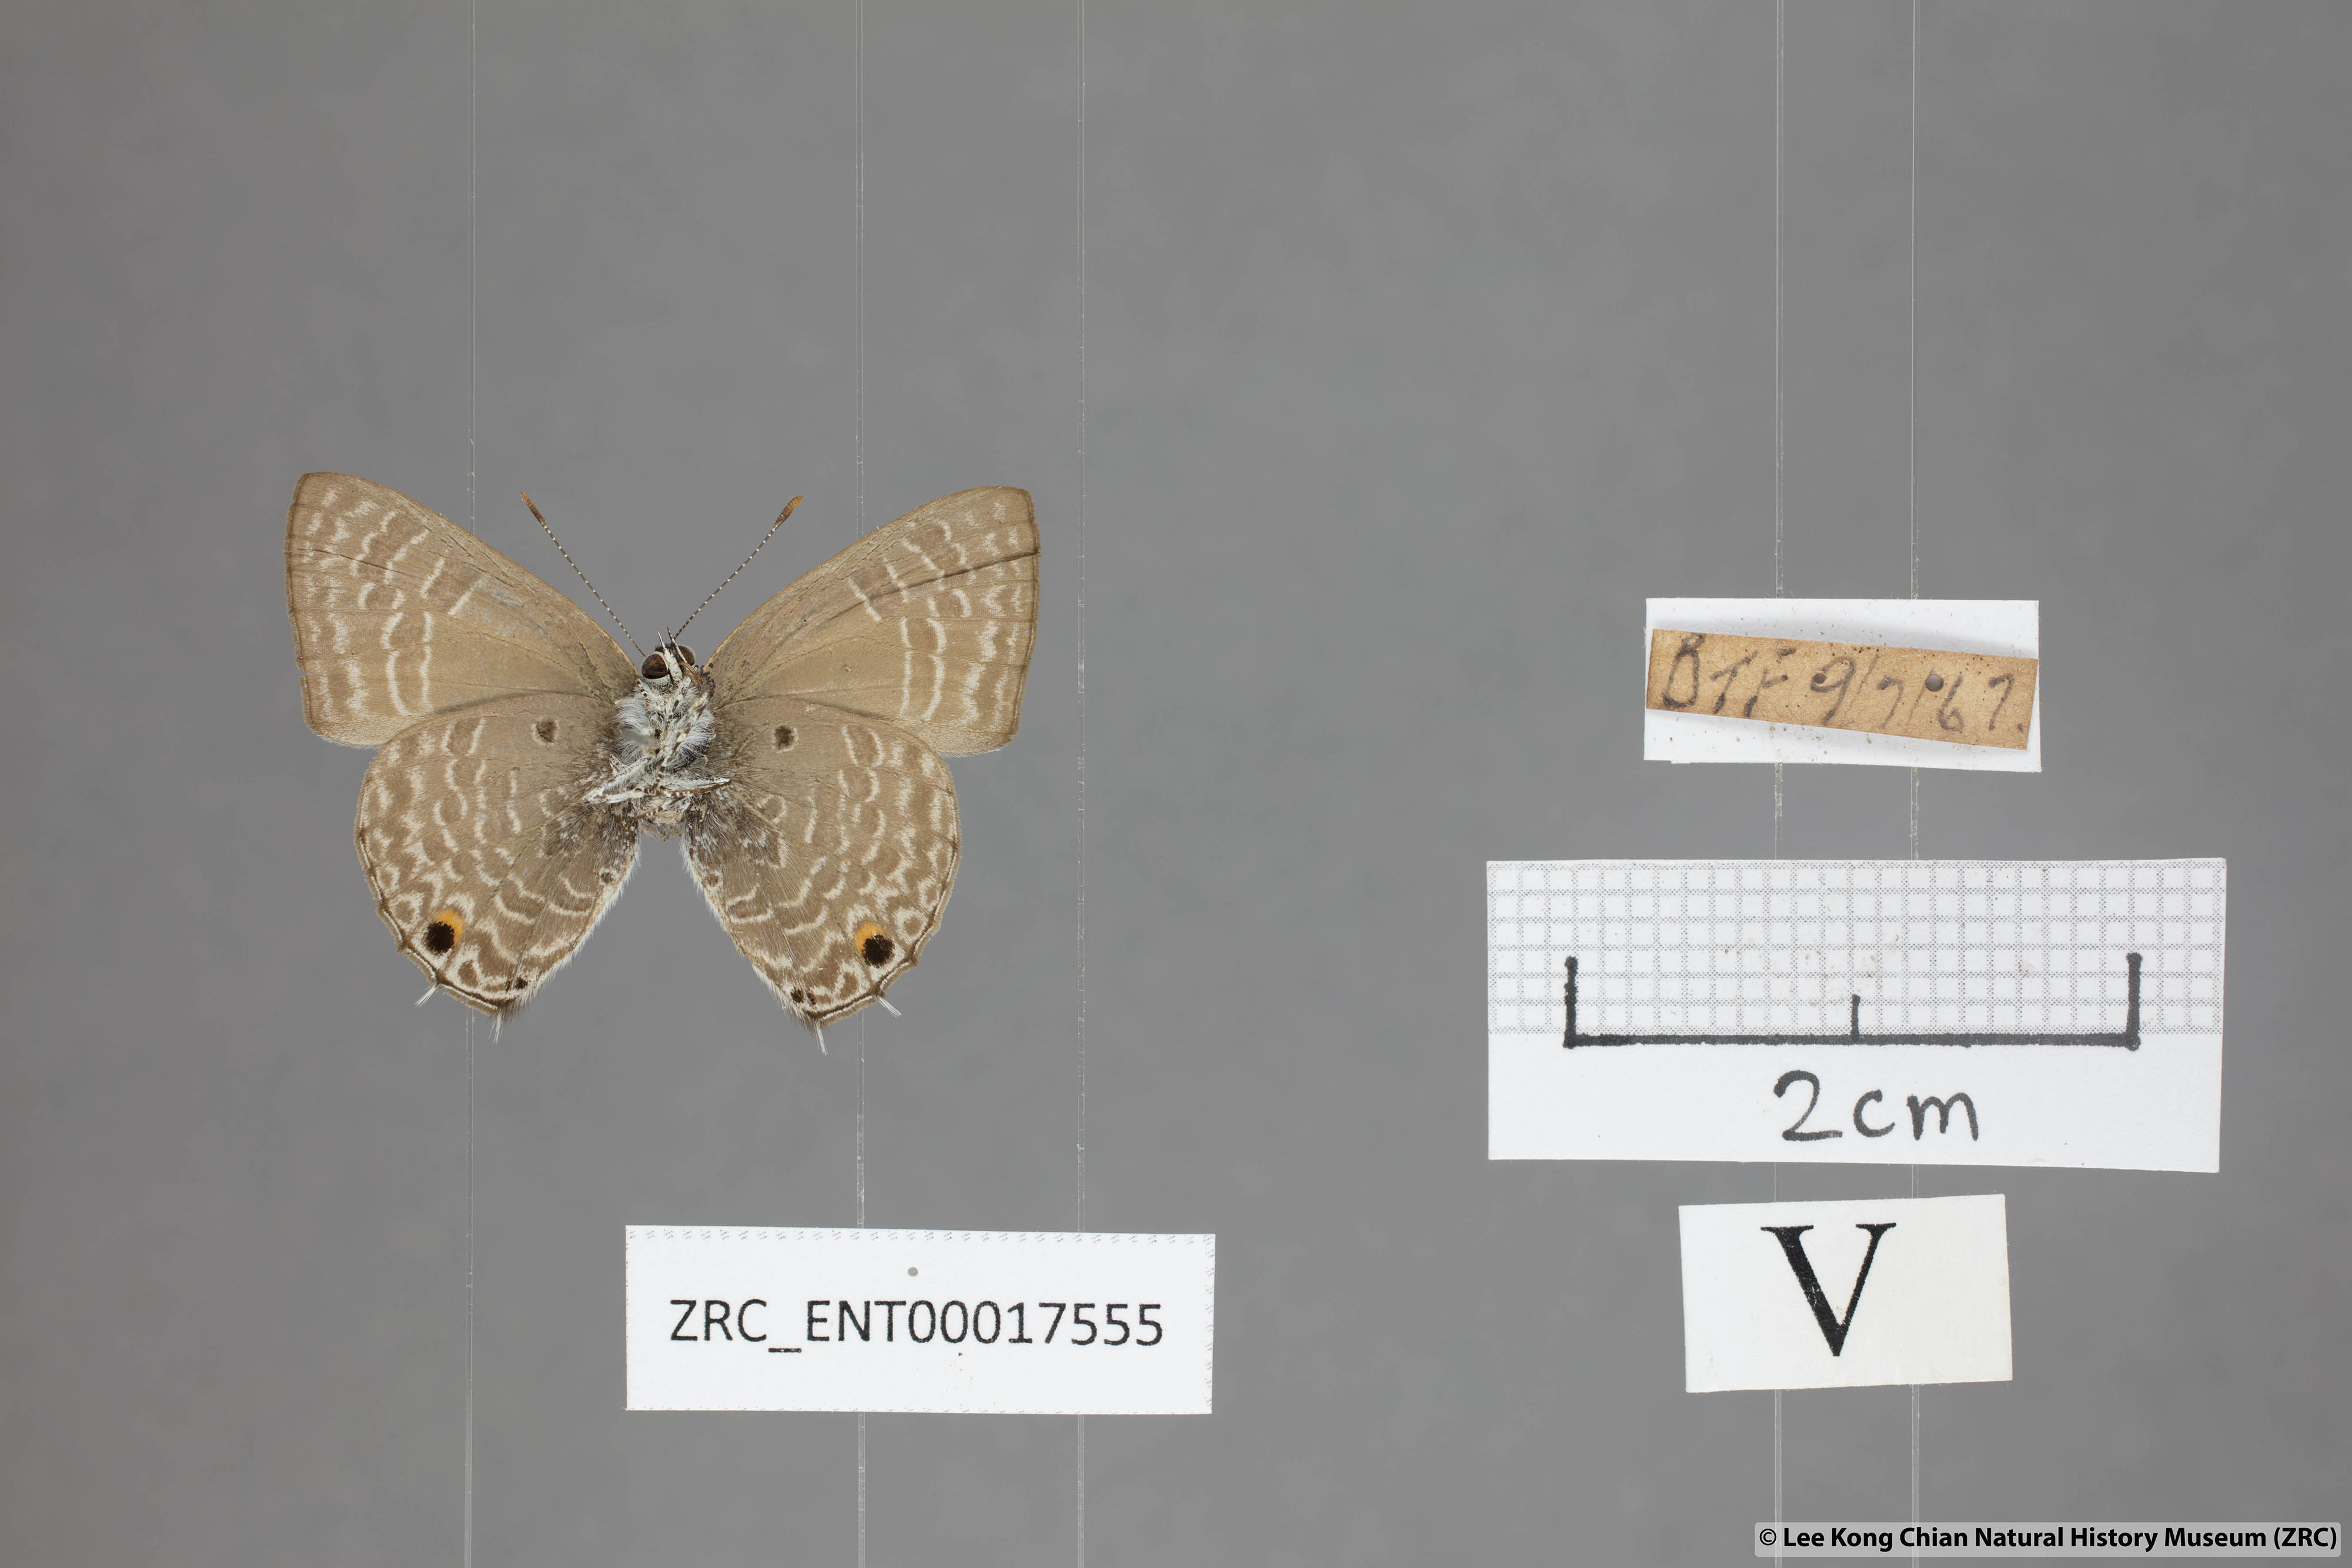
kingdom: Animalia
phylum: Arthropoda
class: Insecta
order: Lepidoptera
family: Lycaenidae
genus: Anthene
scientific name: Anthene lycaenoides
